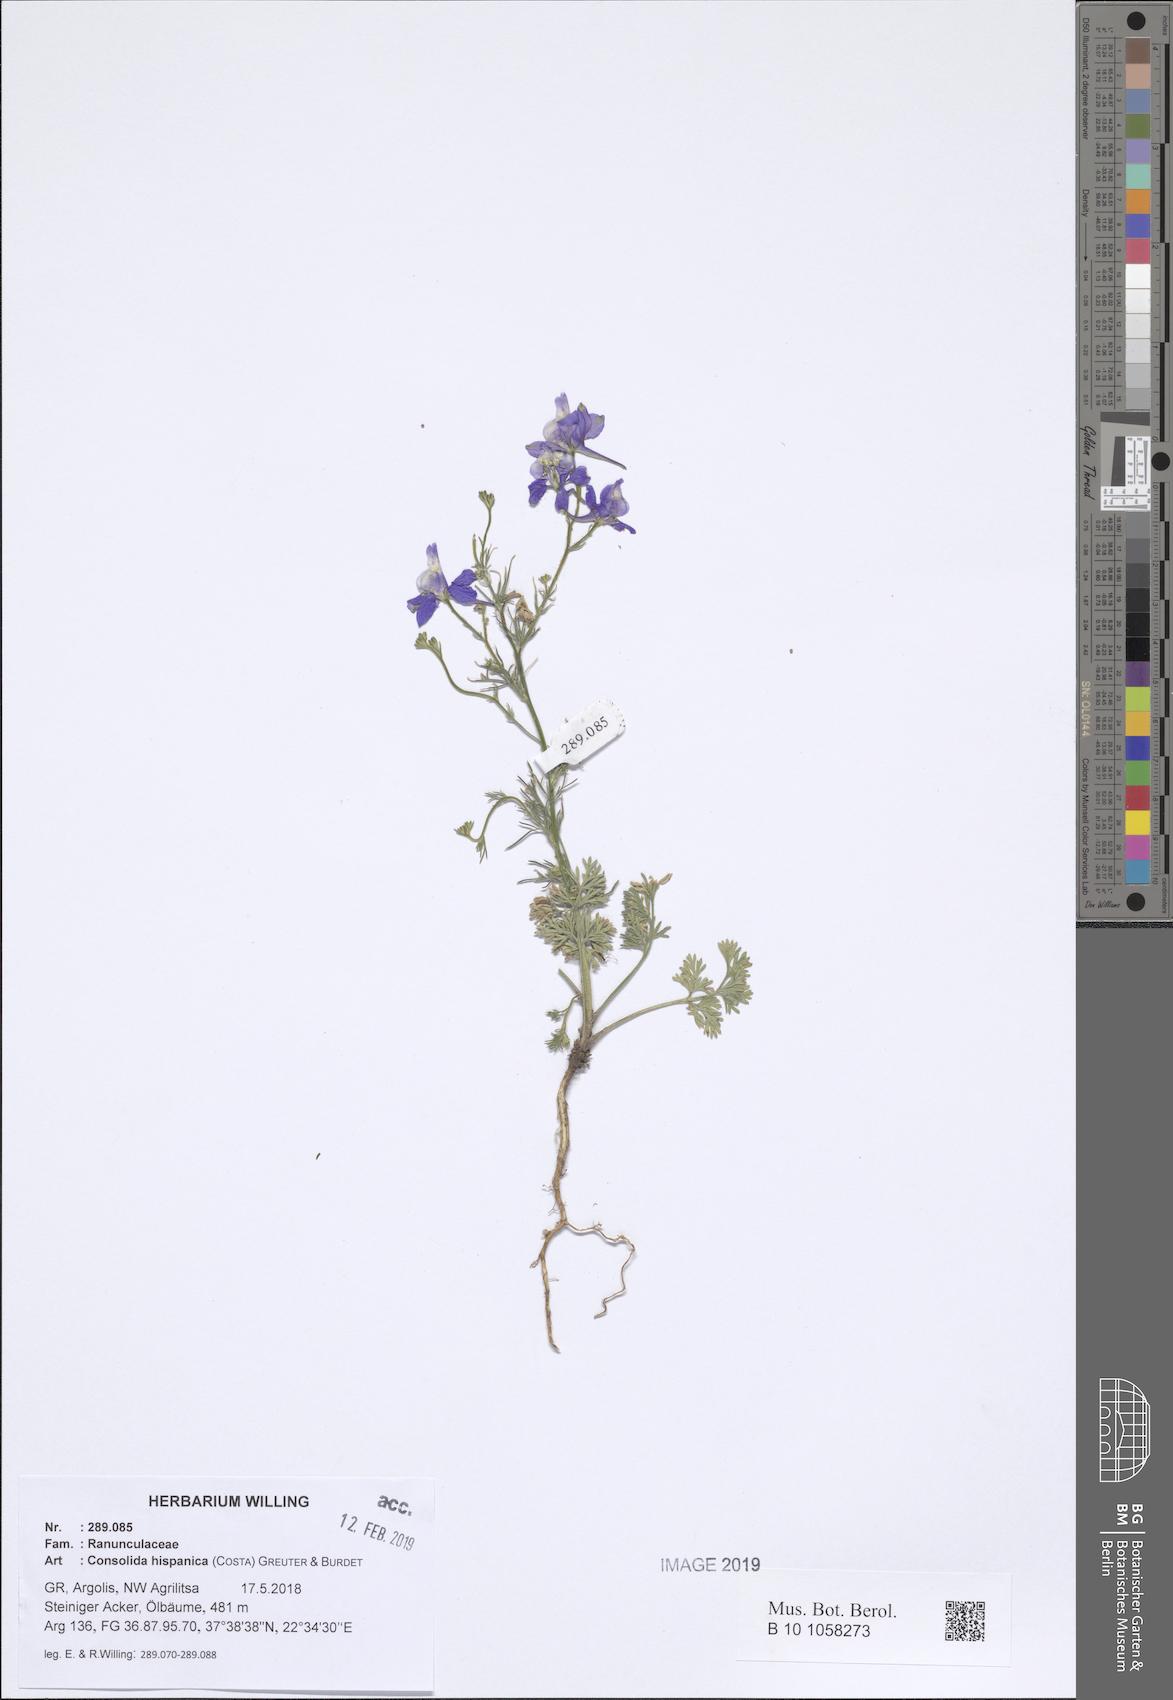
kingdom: Plantae
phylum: Tracheophyta
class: Magnoliopsida
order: Ranunculales
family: Ranunculaceae
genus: Delphinium
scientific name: Delphinium hispanicum
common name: Oriental knight's-spur
